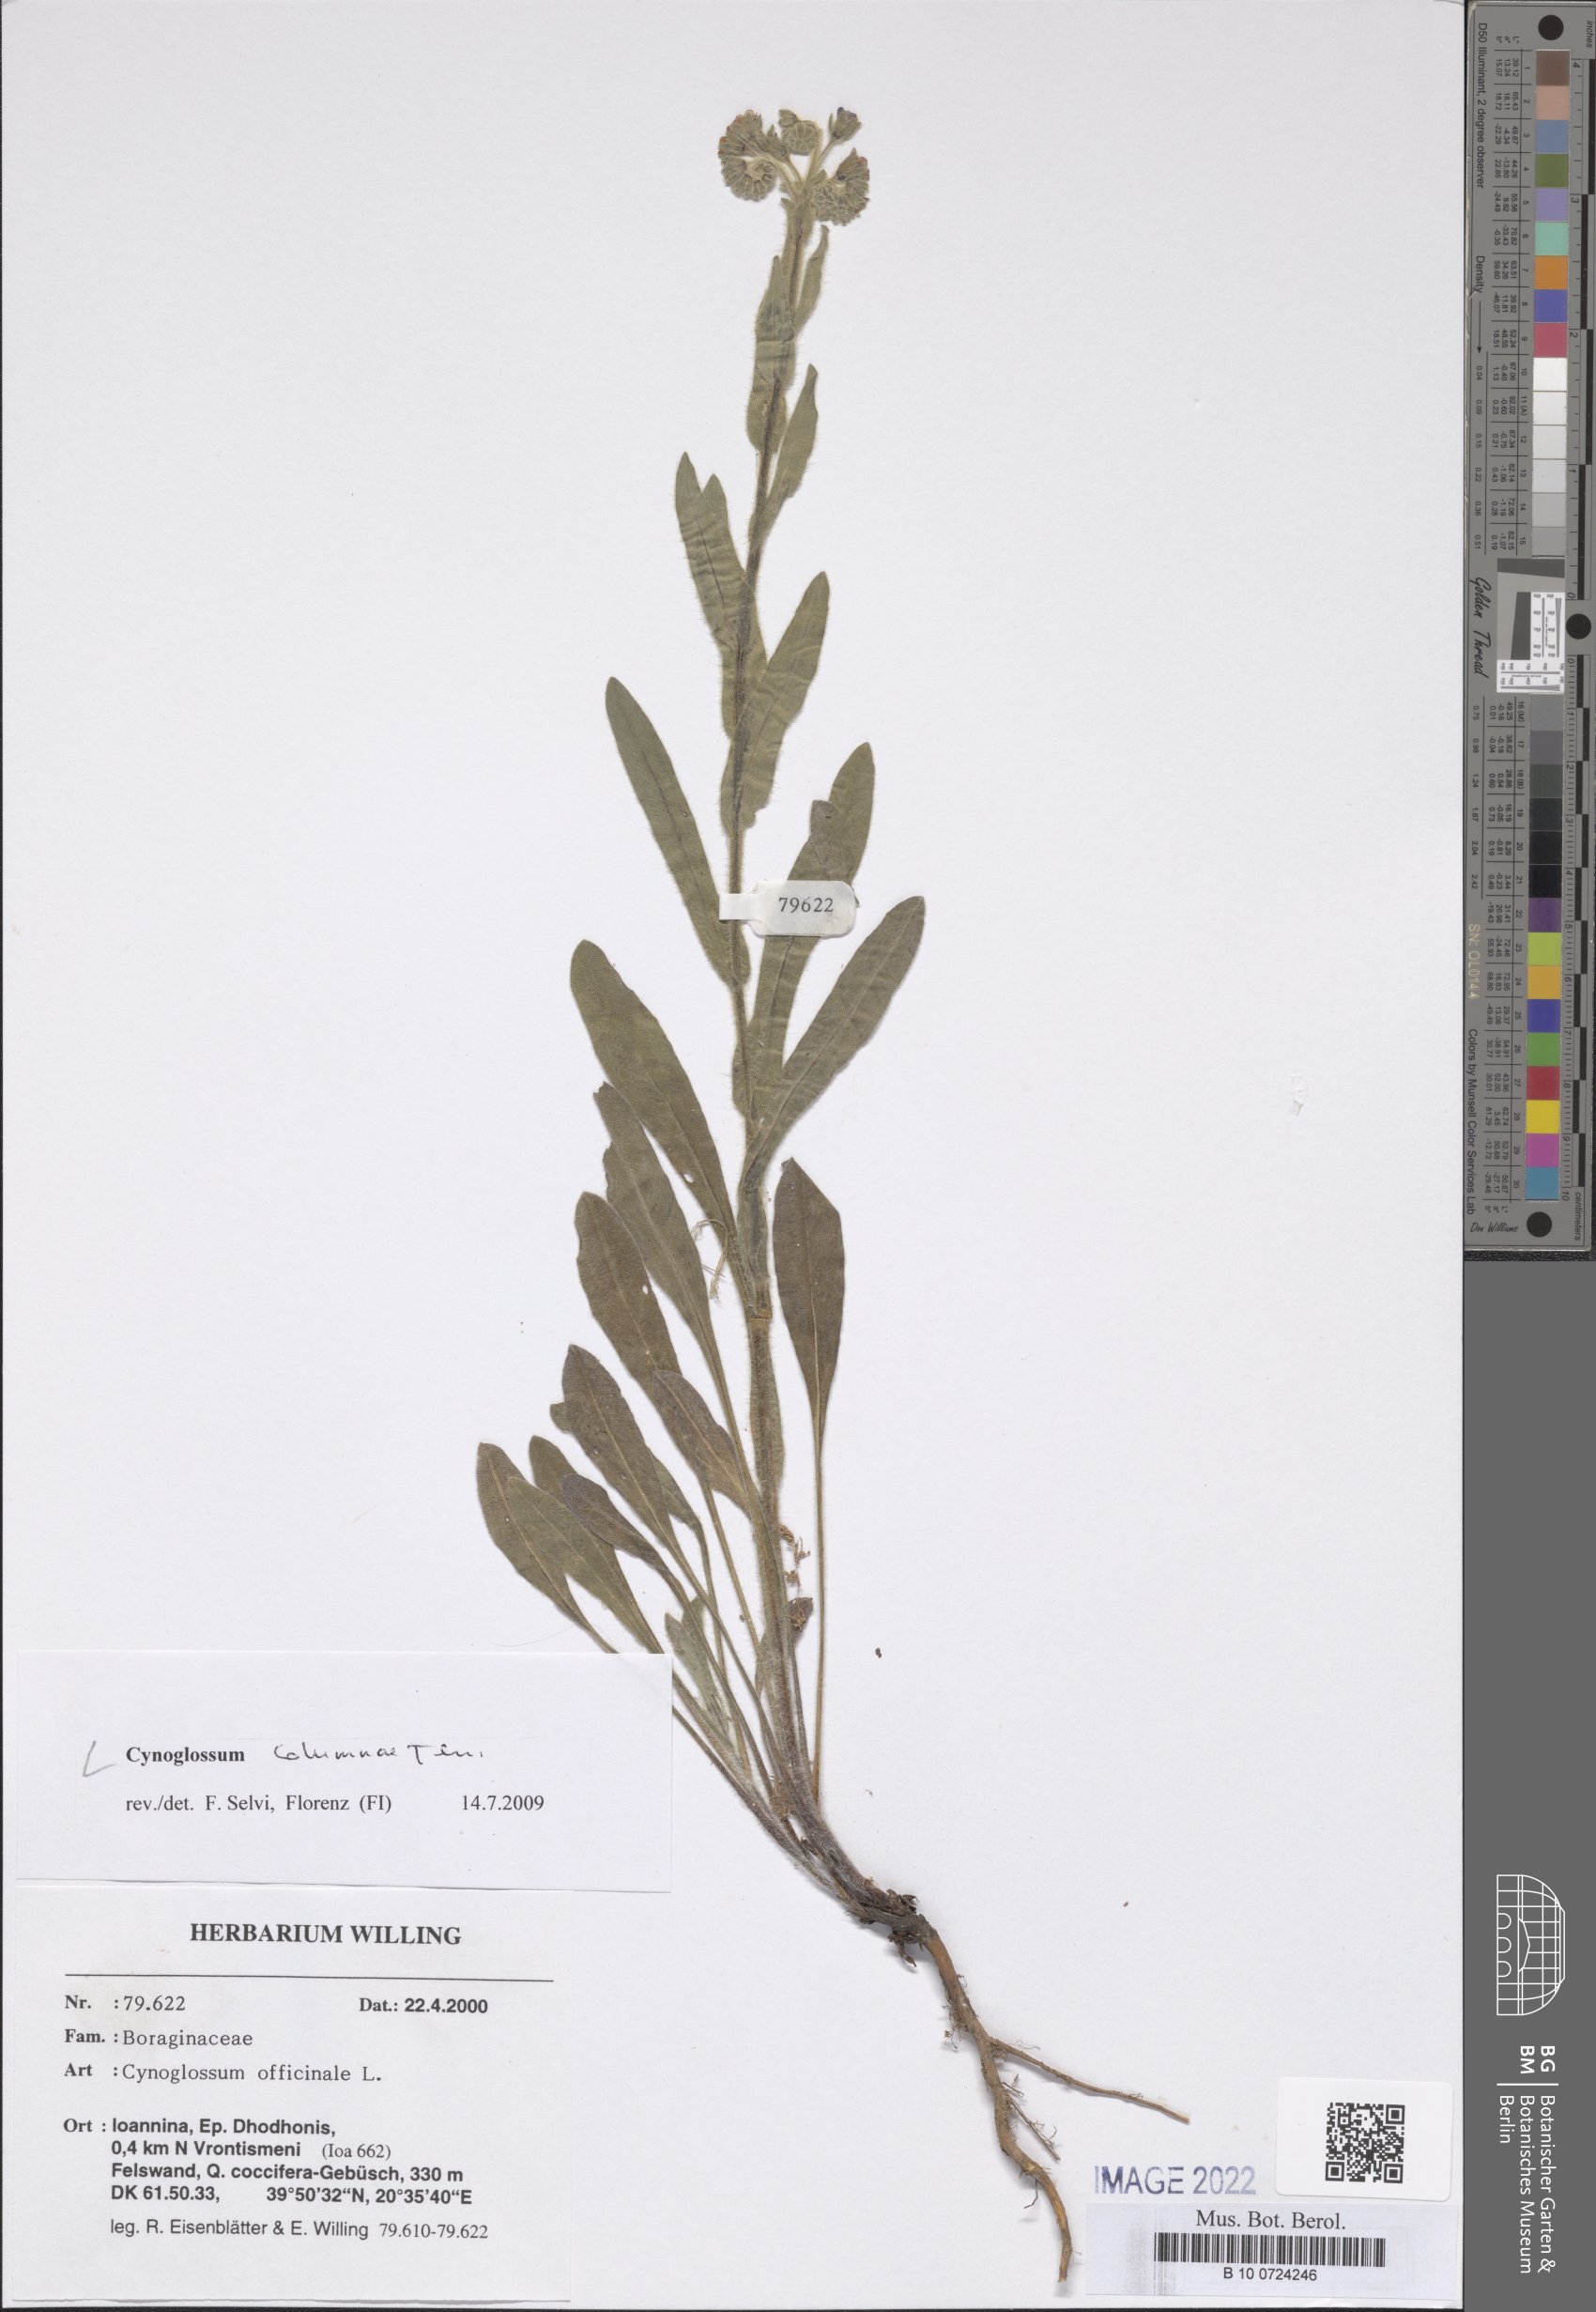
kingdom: Plantae
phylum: Tracheophyta
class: Magnoliopsida
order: Boraginales
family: Boraginaceae
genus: Rindera
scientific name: Rindera columnae
